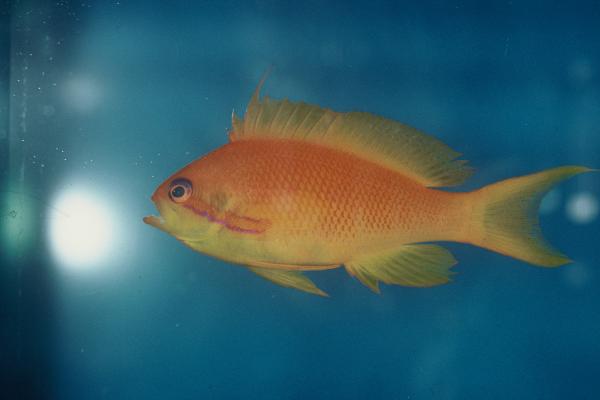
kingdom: Animalia
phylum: Chordata
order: Perciformes
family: Serranidae
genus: Pseudanthias
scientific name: Pseudanthias squamipinnis
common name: Scalefin anthias
